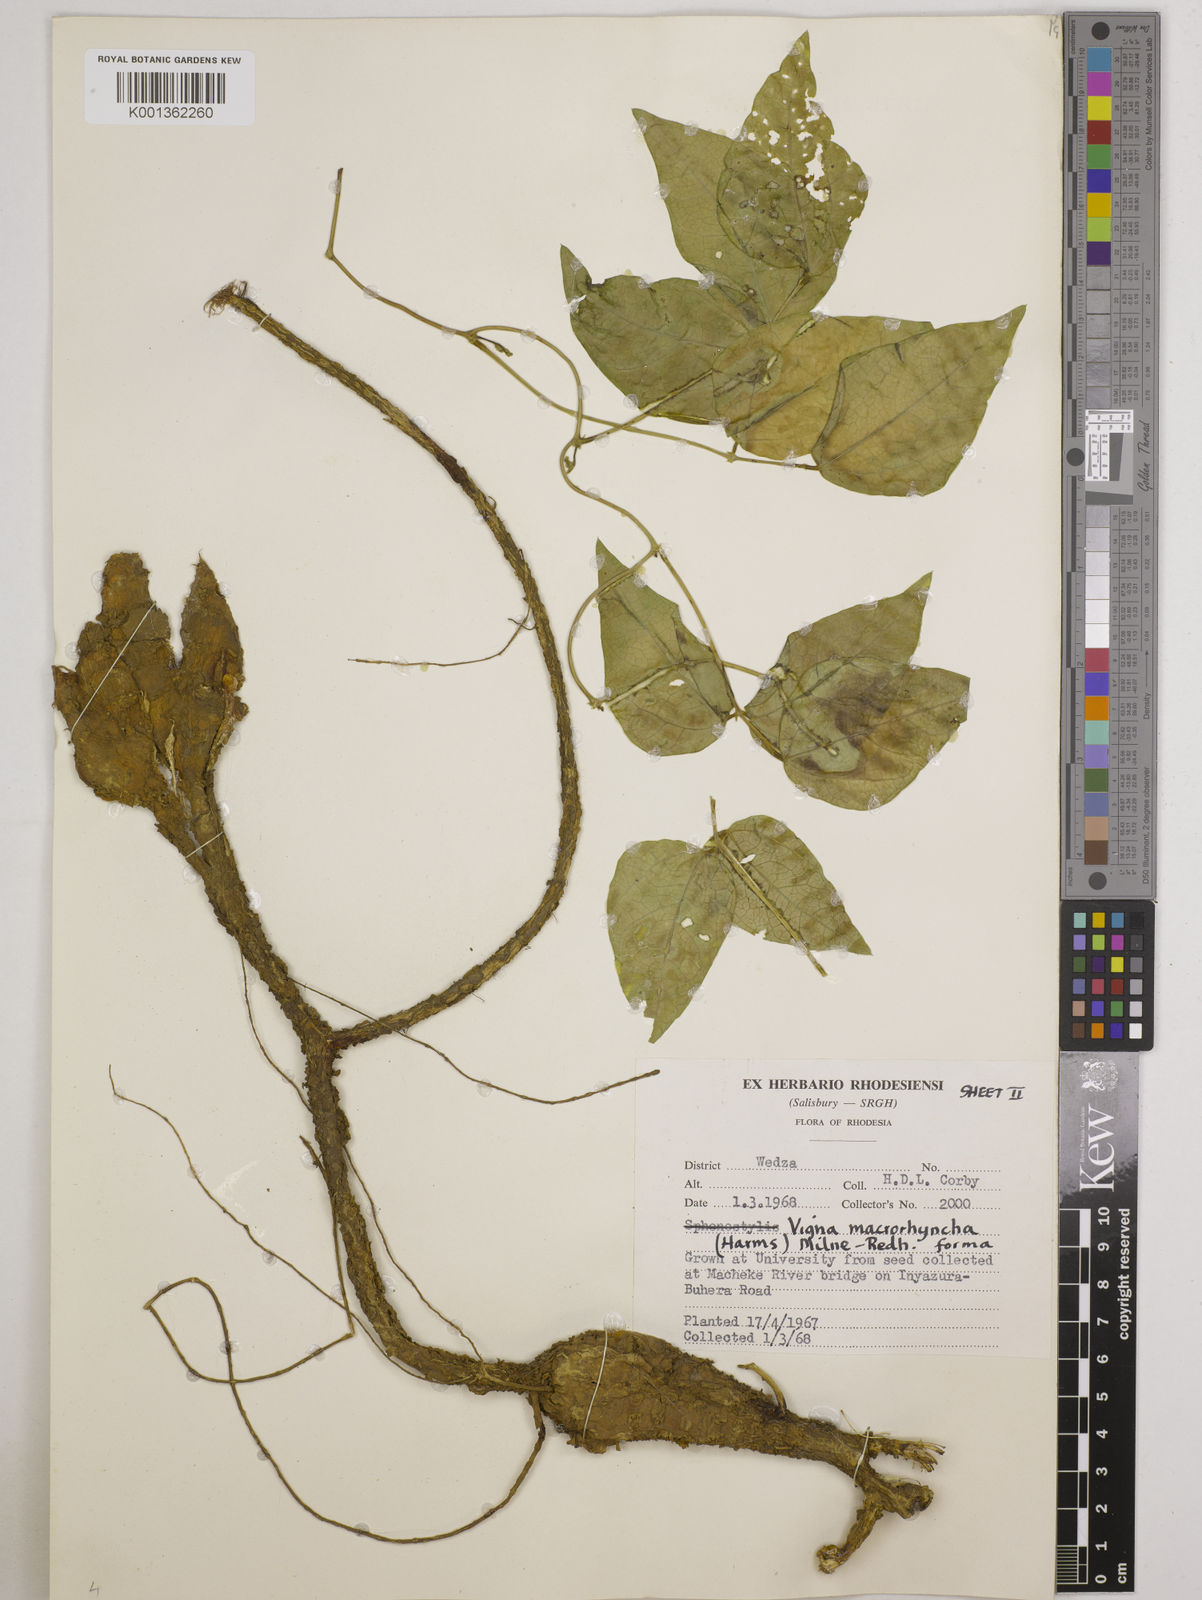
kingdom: Plantae
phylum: Tracheophyta
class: Magnoliopsida
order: Fabales
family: Fabaceae
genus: Wajira
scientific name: Wajira grahamiana
